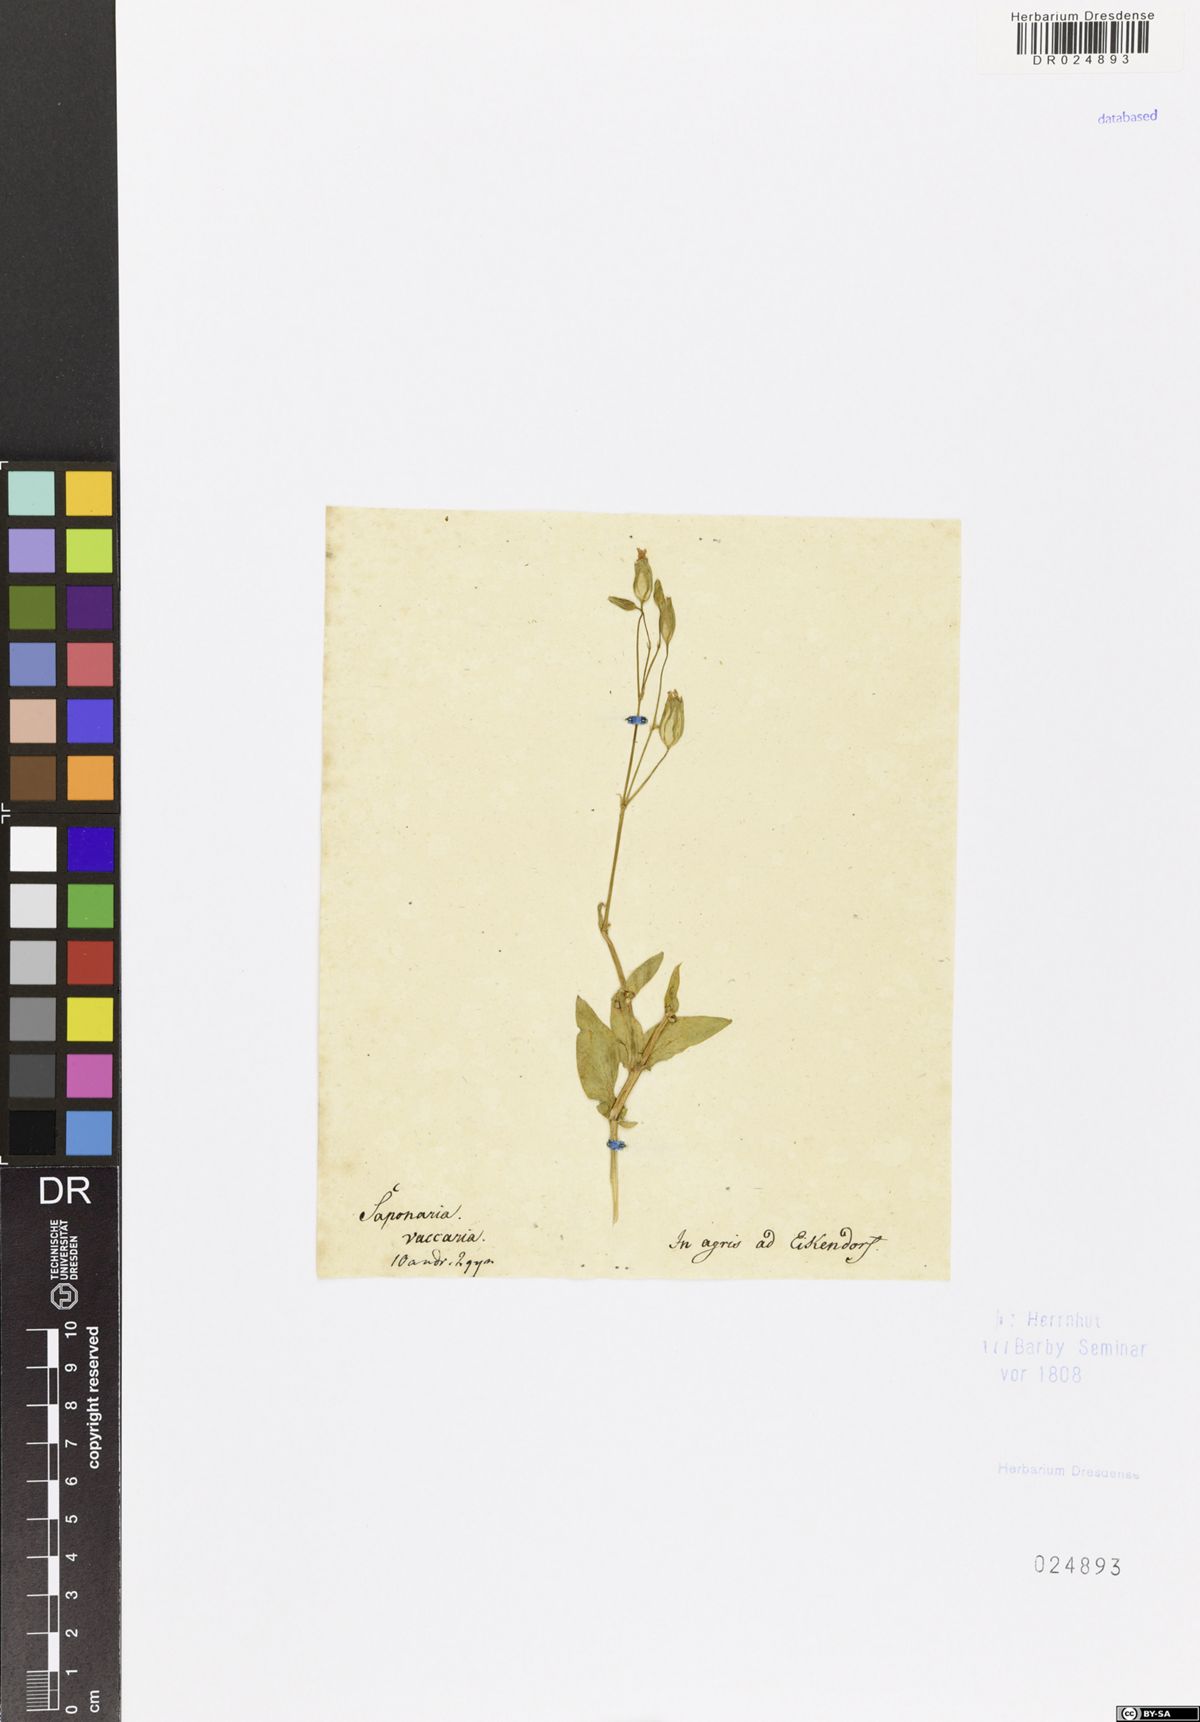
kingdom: Plantae
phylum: Tracheophyta
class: Magnoliopsida
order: Caryophyllales
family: Caryophyllaceae
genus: Gypsophila
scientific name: Gypsophila vaccaria
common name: Cow soapwort
